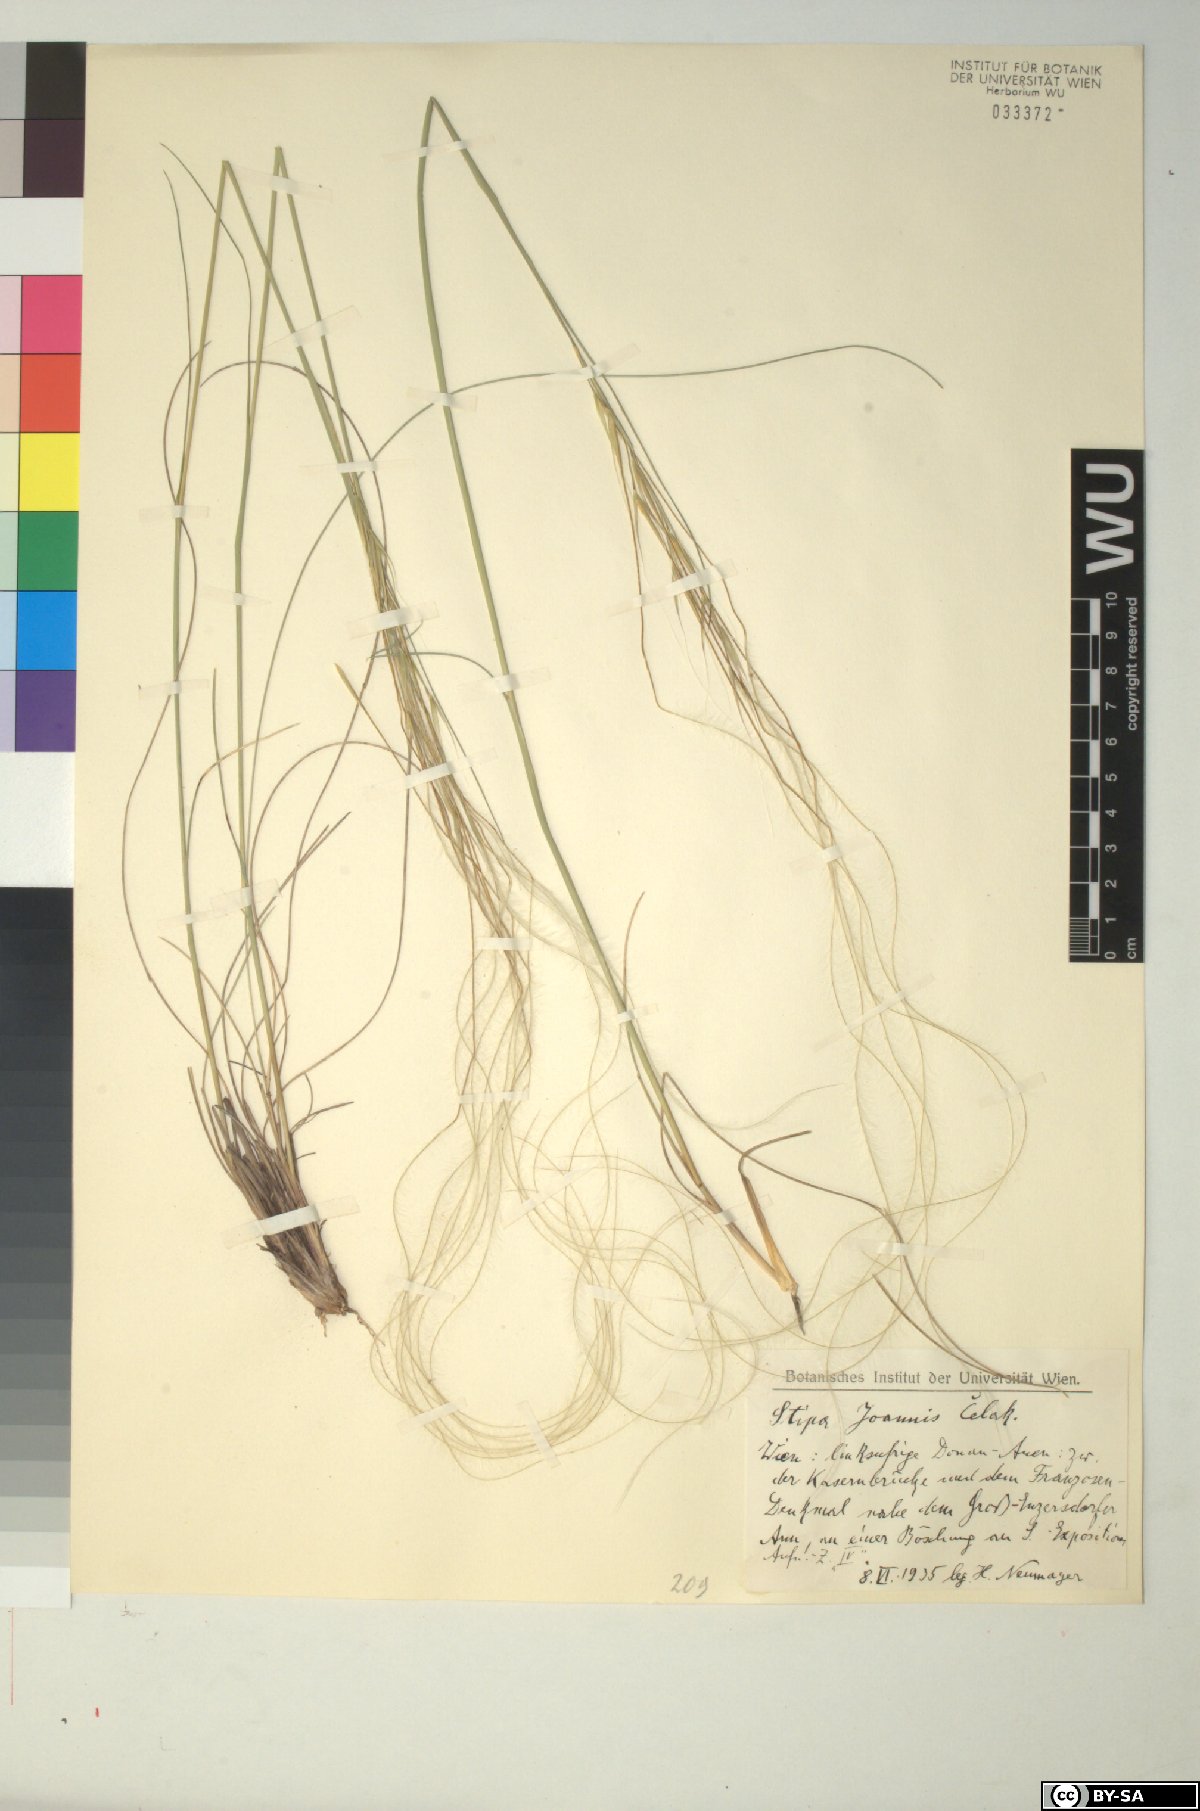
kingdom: Plantae
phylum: Tracheophyta
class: Liliopsida
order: Poales
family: Poaceae
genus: Stipa
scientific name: Stipa pennata
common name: European feather grass
